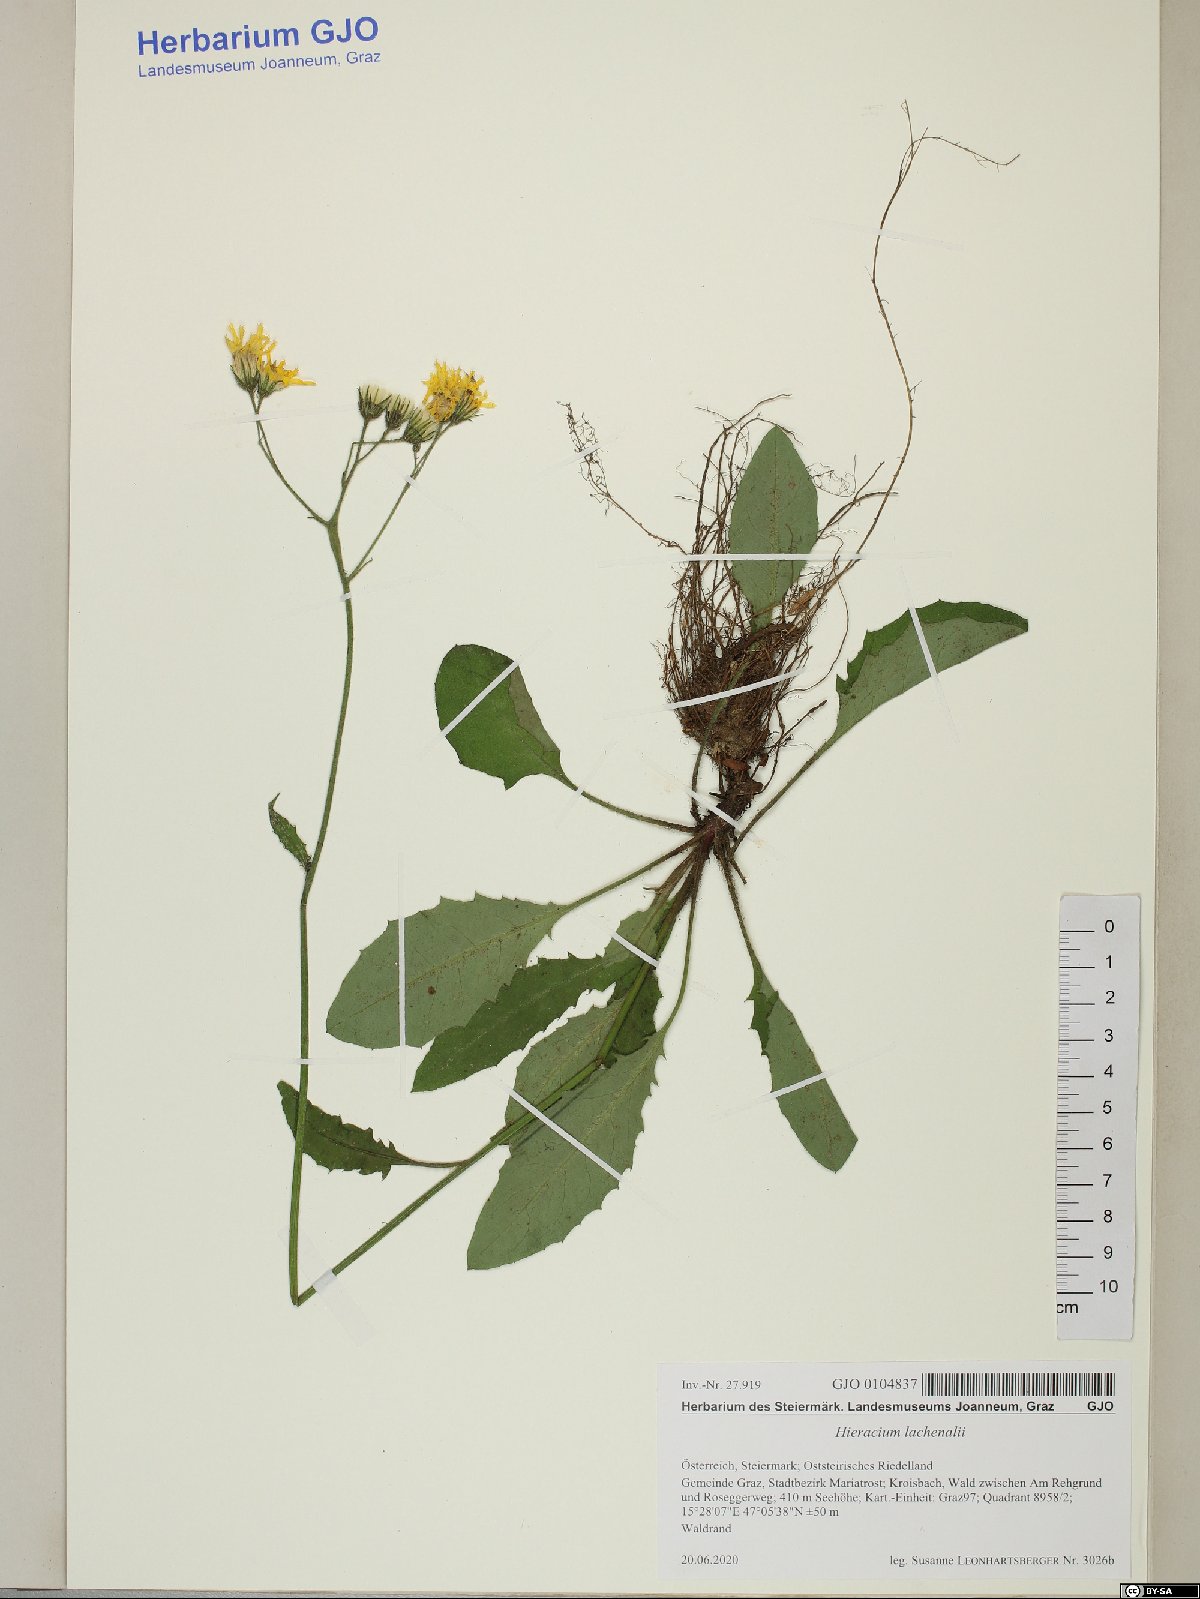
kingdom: Plantae
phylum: Tracheophyta
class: Magnoliopsida
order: Asterales
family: Asteraceae
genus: Hieracium
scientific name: Hieracium lachenalii
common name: Common hawkweed
